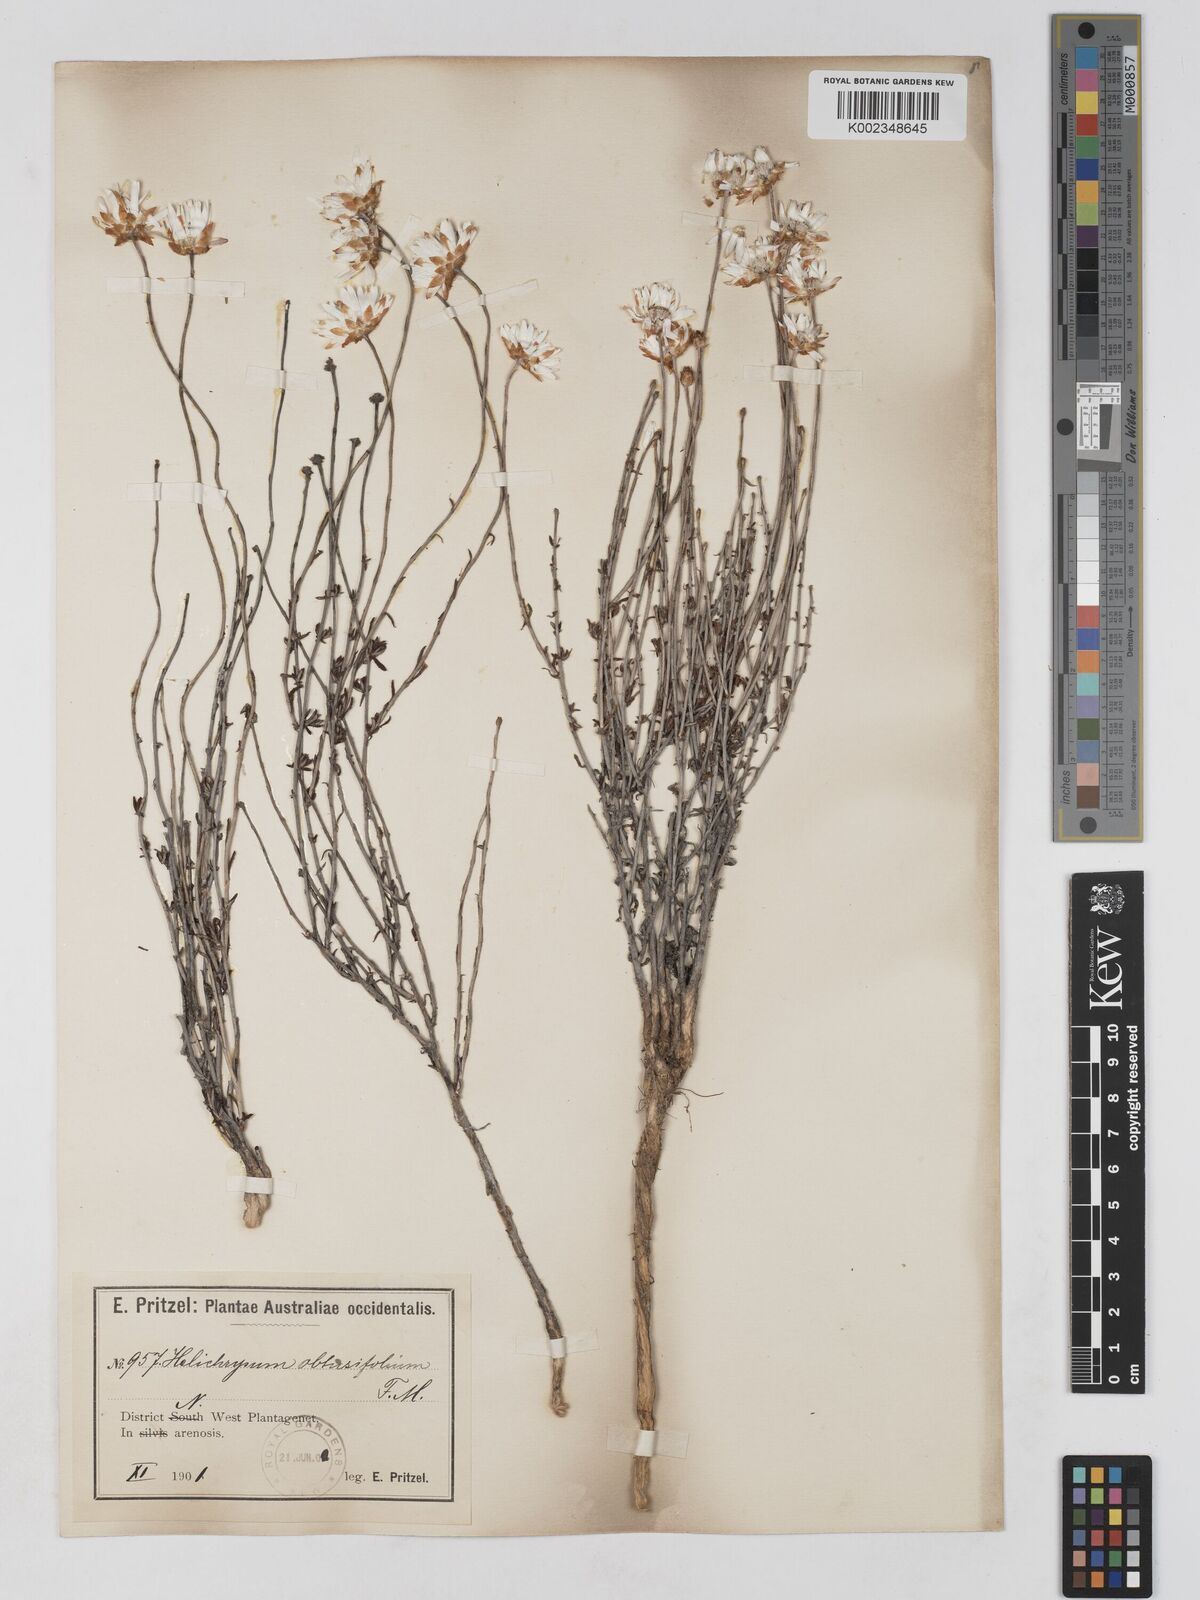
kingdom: Plantae
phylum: Tracheophyta
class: Magnoliopsida
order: Asterales
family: Asteraceae
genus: Argentipallium
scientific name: Argentipallium obtusifolium
